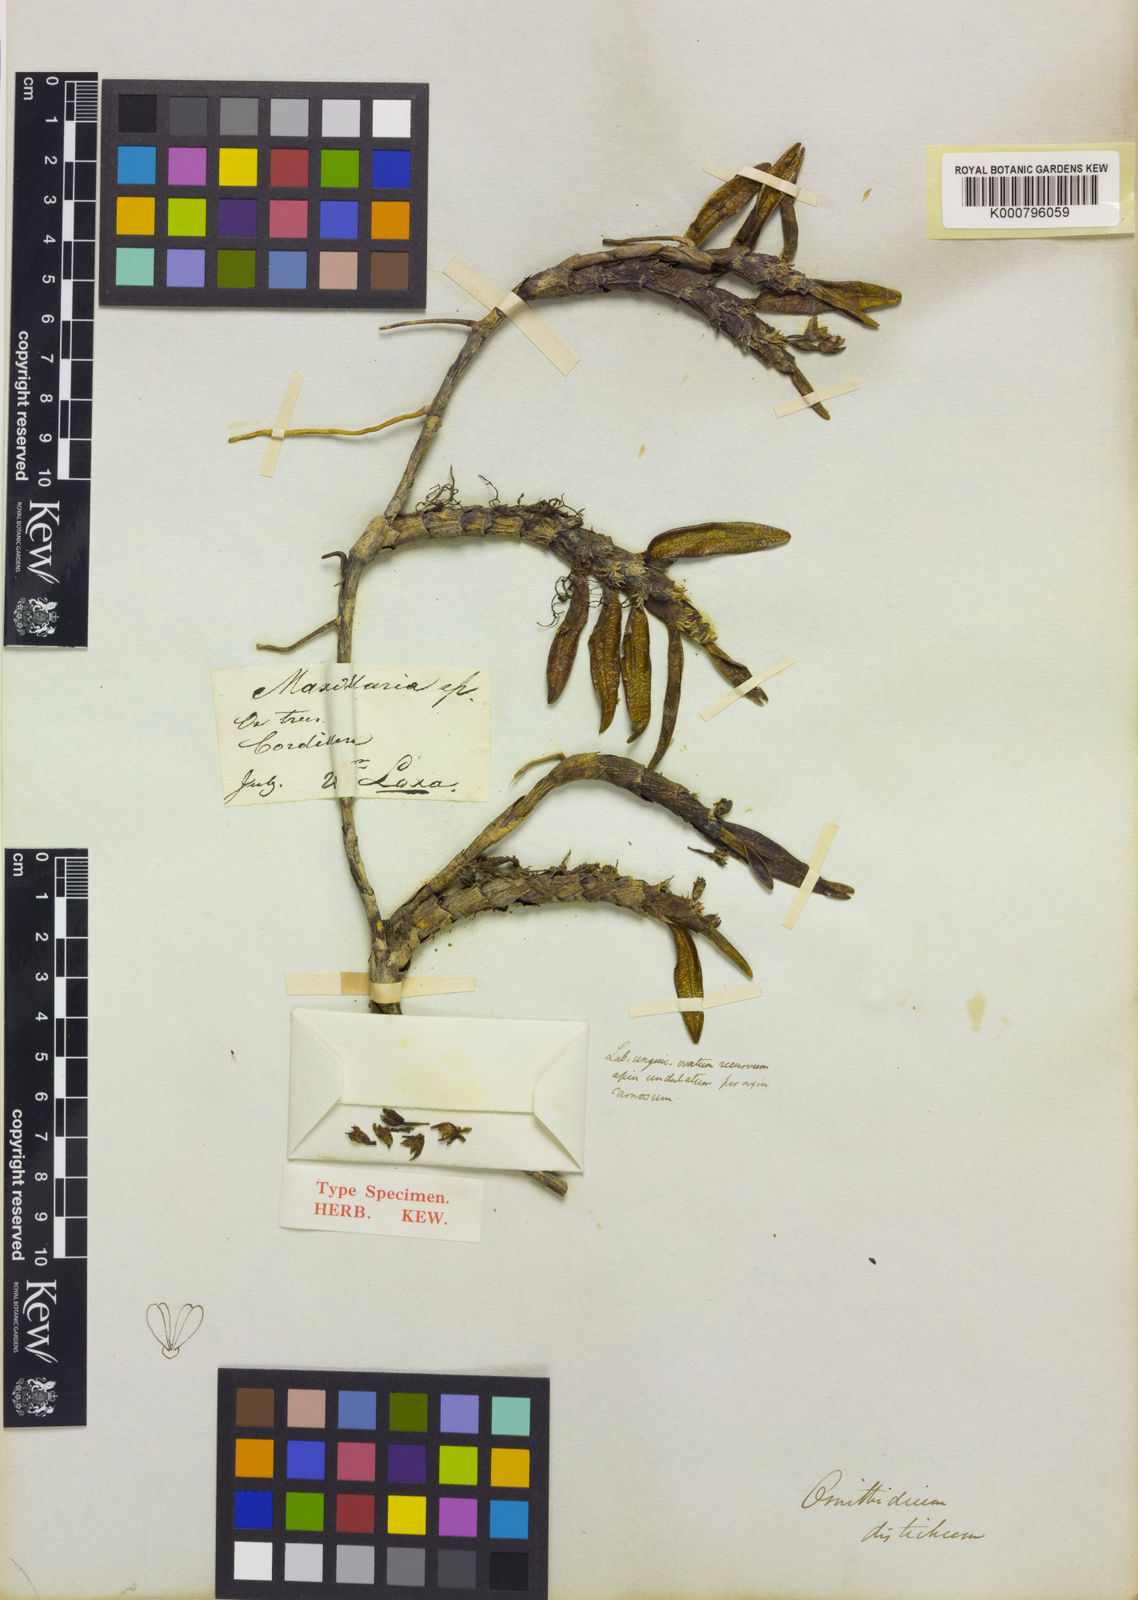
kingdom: Plantae
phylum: Tracheophyta
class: Liliopsida
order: Asparagales
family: Orchidaceae
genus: Maxillaria
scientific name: Maxillaria disticha
